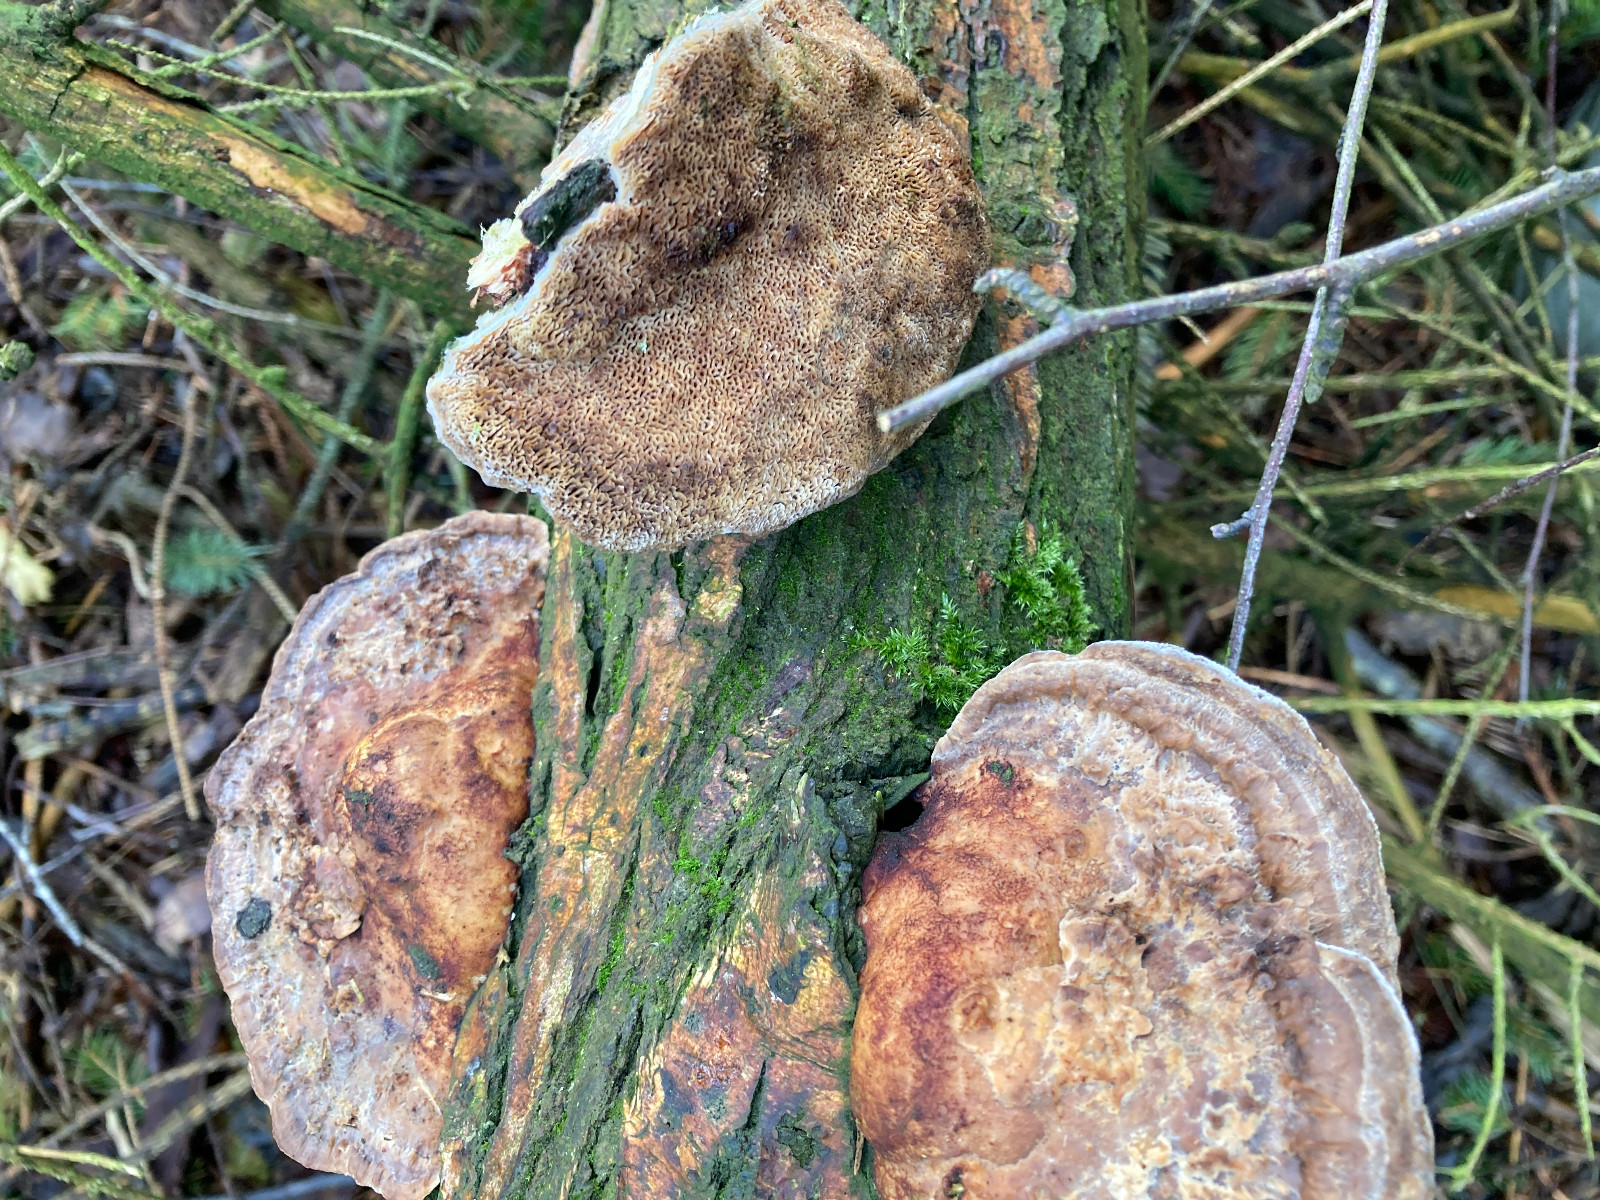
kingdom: Fungi
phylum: Basidiomycota
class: Agaricomycetes
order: Polyporales
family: Polyporaceae
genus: Daedaleopsis
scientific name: Daedaleopsis confragosa
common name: rødmende læderporesvamp
